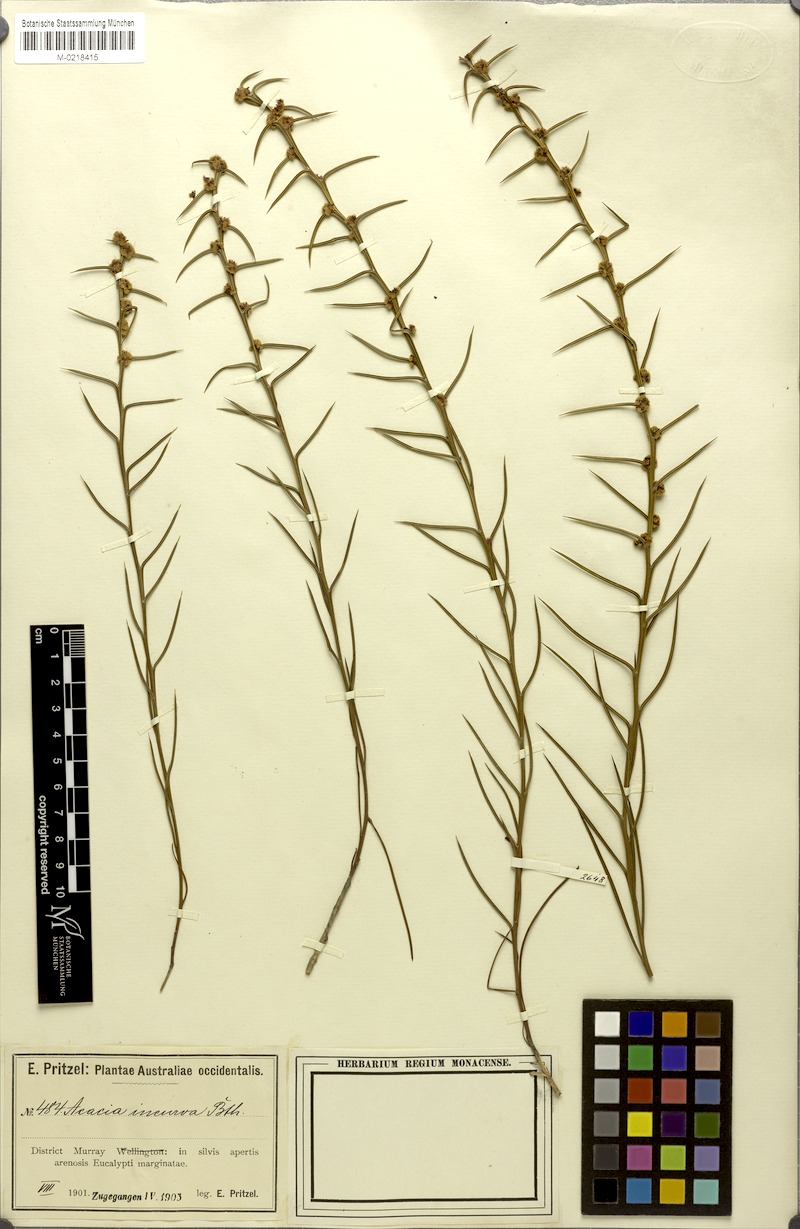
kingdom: Plantae
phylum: Tracheophyta
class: Magnoliopsida
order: Fabales
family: Fabaceae
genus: Acacia
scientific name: Acacia incurva
